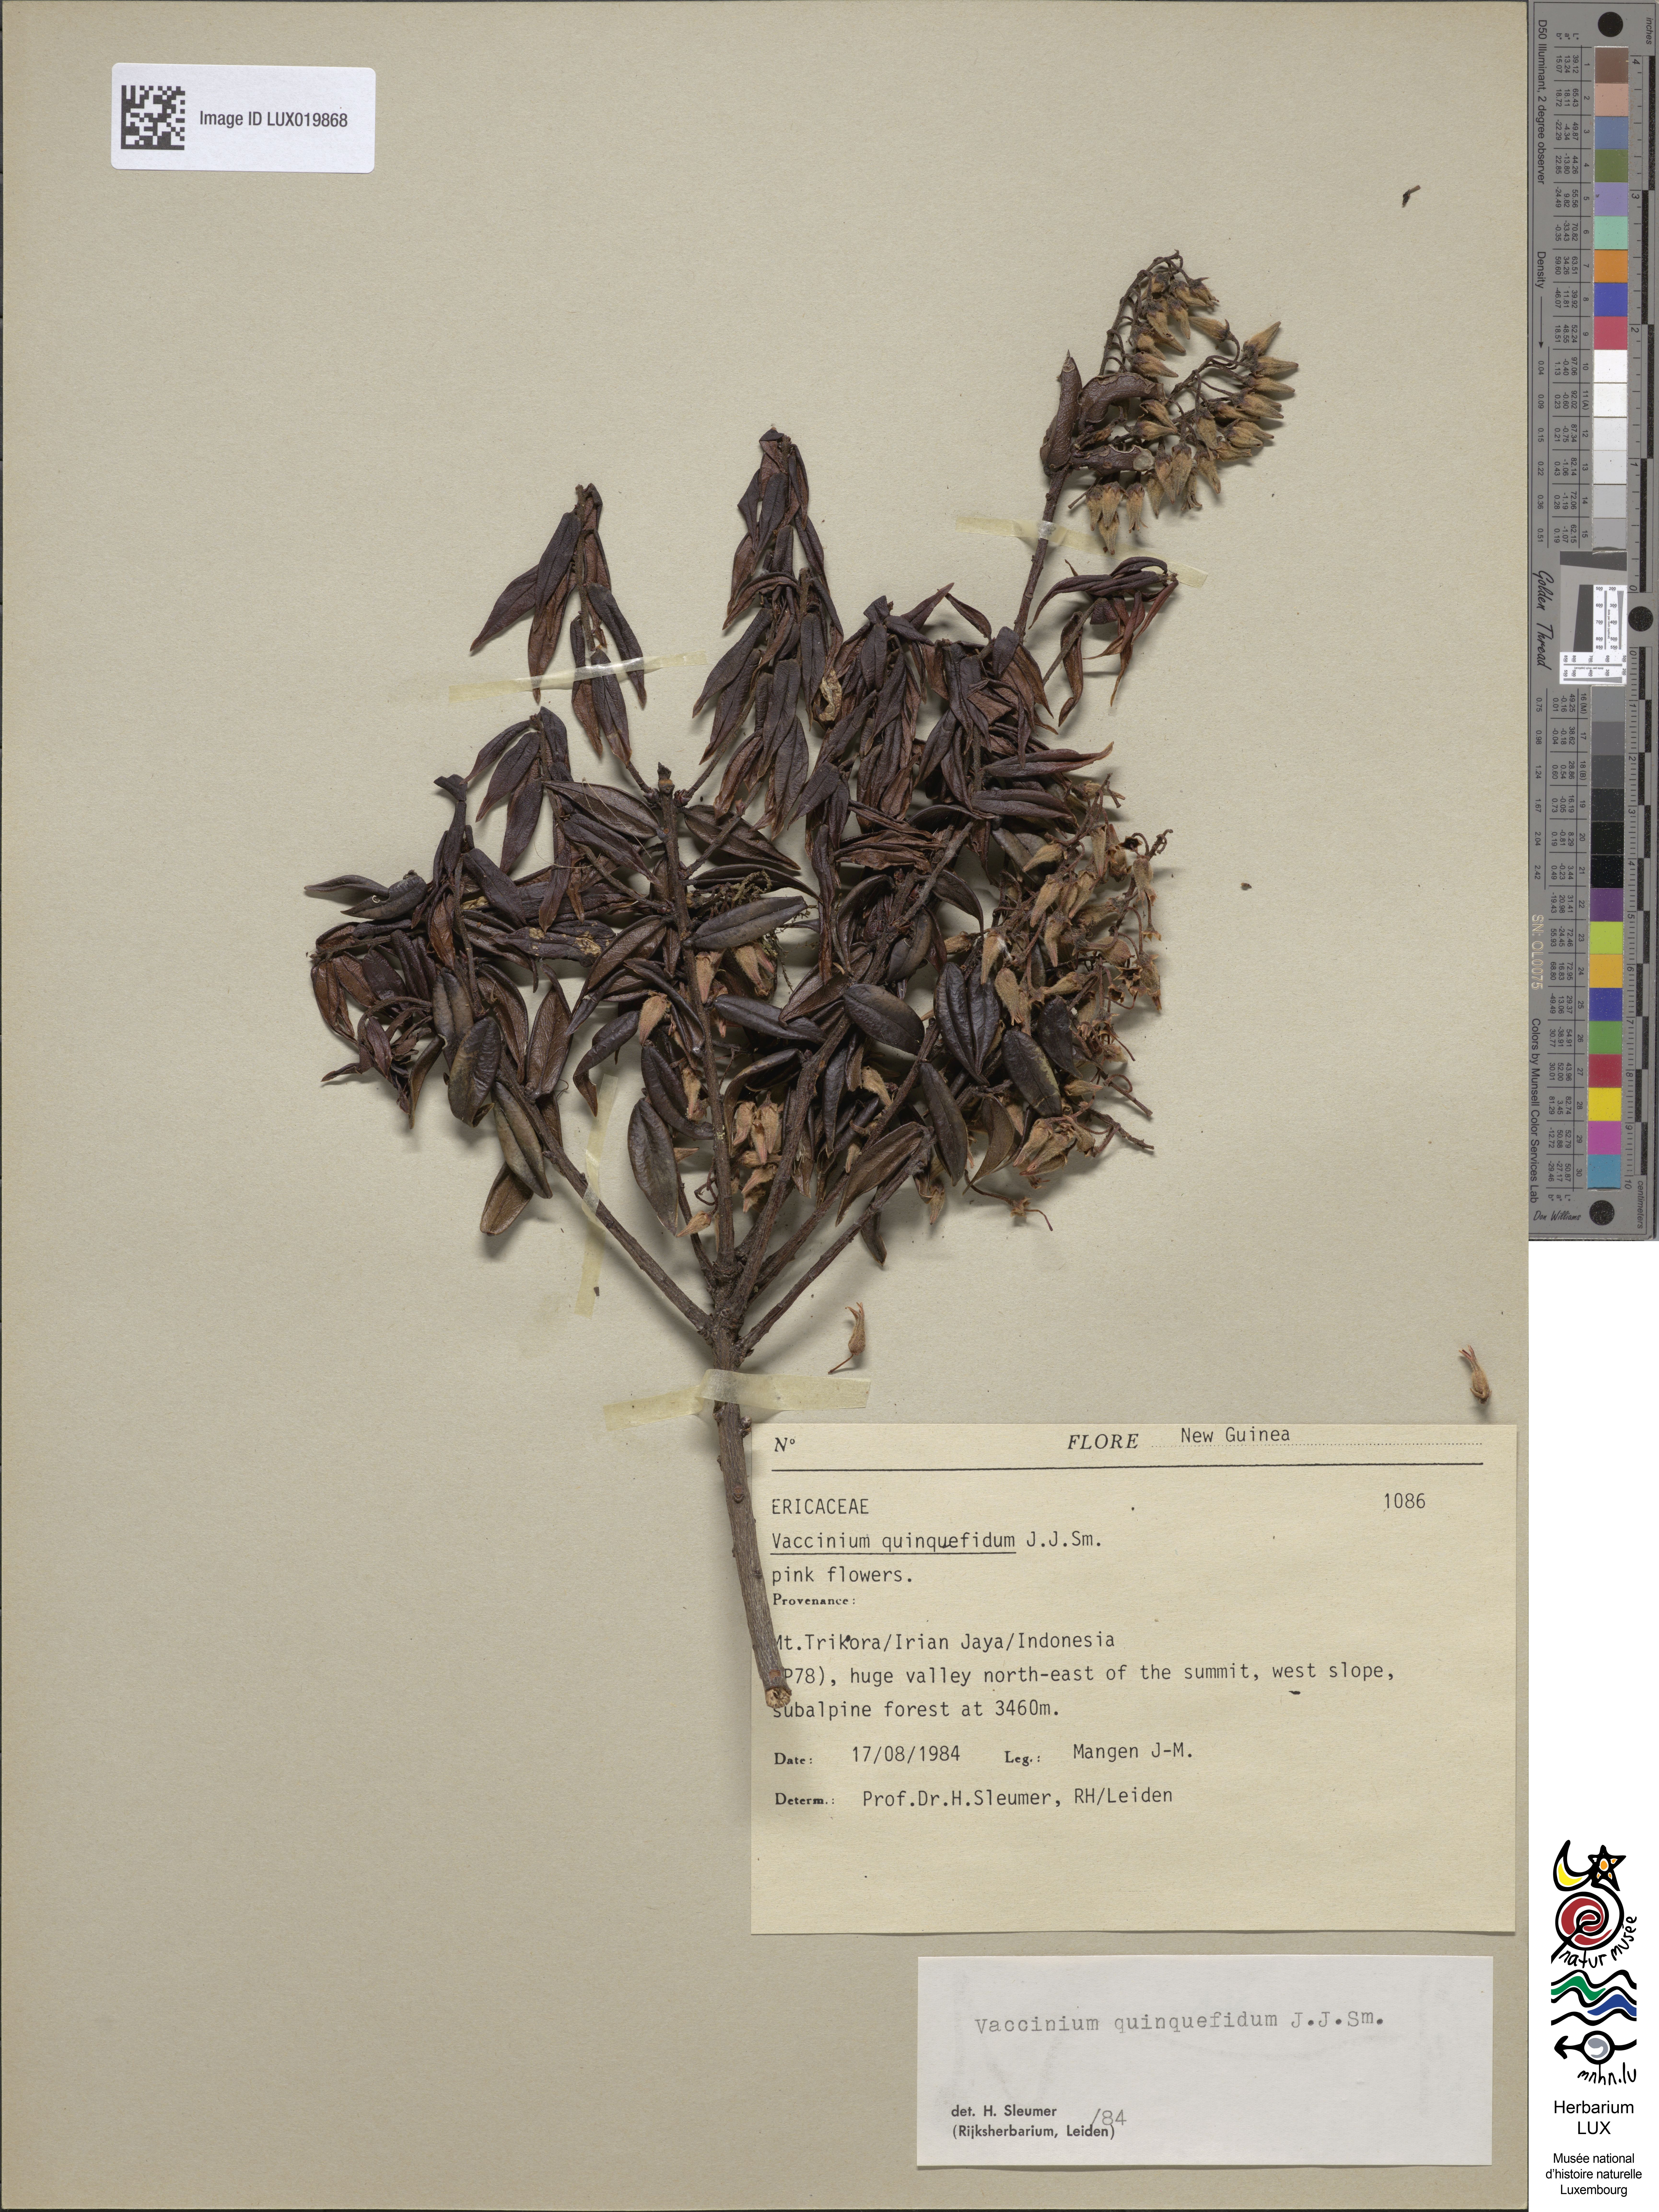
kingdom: Plantae
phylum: Tracheophyta
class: Magnoliopsida
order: Ericales
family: Ericaceae
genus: Vaccinium
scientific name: Vaccinium quinquefidum
